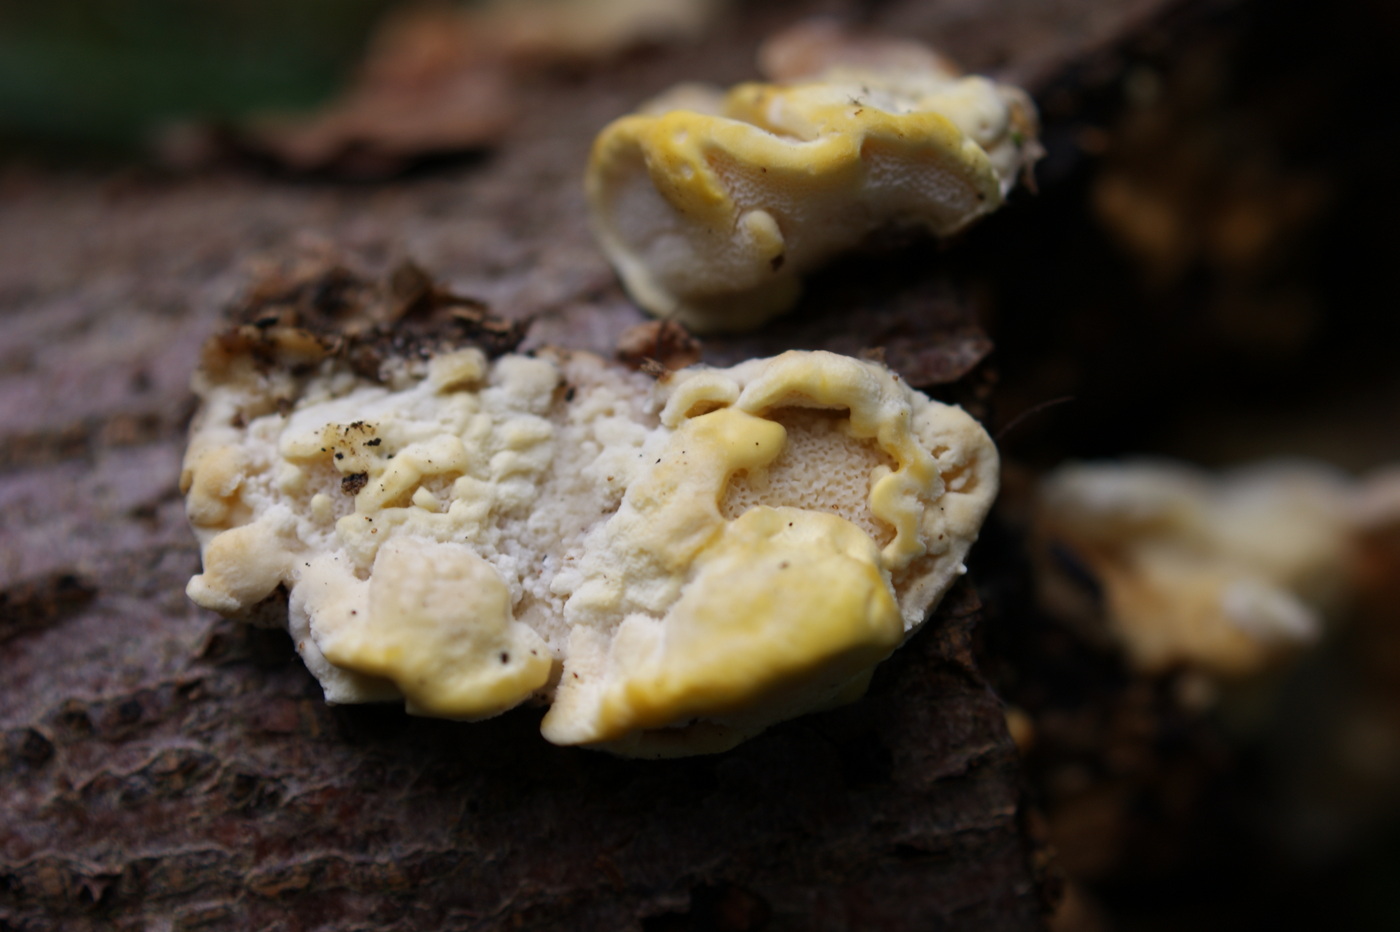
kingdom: Fungi
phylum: Basidiomycota
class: Agaricomycetes
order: Polyporales
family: Steccherinaceae
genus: Antrodiella
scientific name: Antrodiella serpula
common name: gulrandet elastikporesvamp
